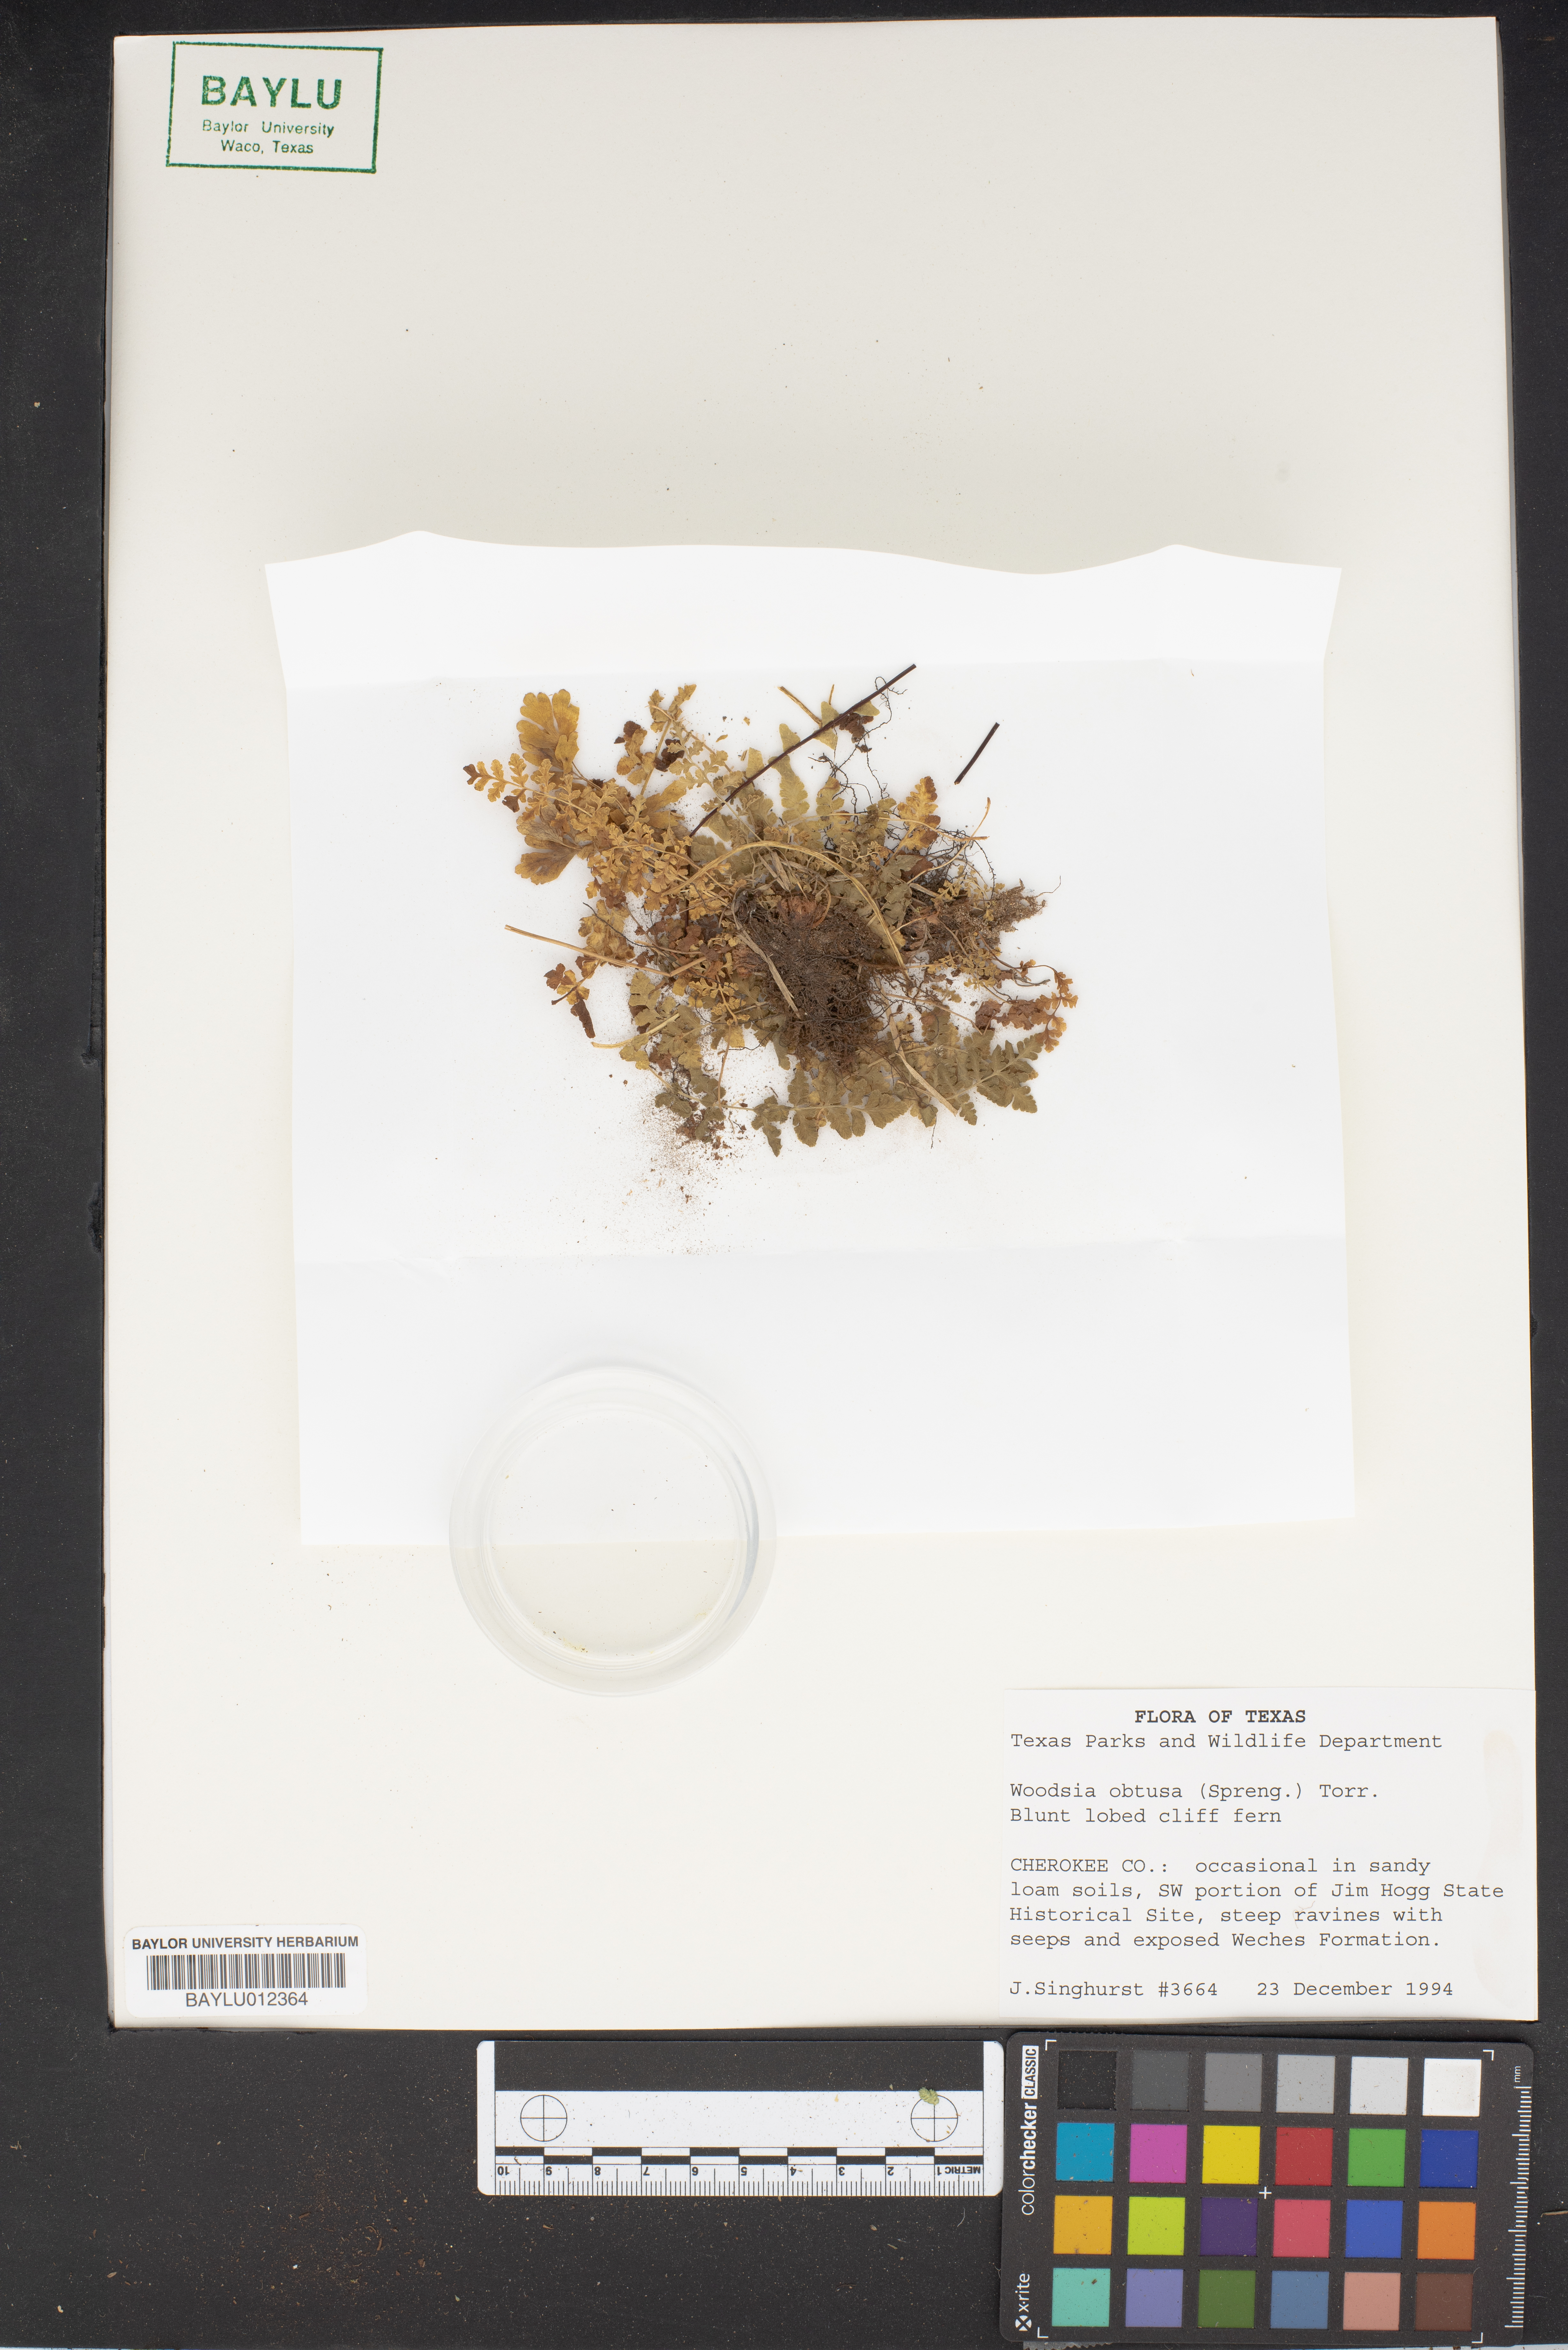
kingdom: Plantae
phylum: Tracheophyta
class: Polypodiopsida
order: Polypodiales
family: Woodsiaceae
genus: Physematium
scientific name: Physematium obtusum
